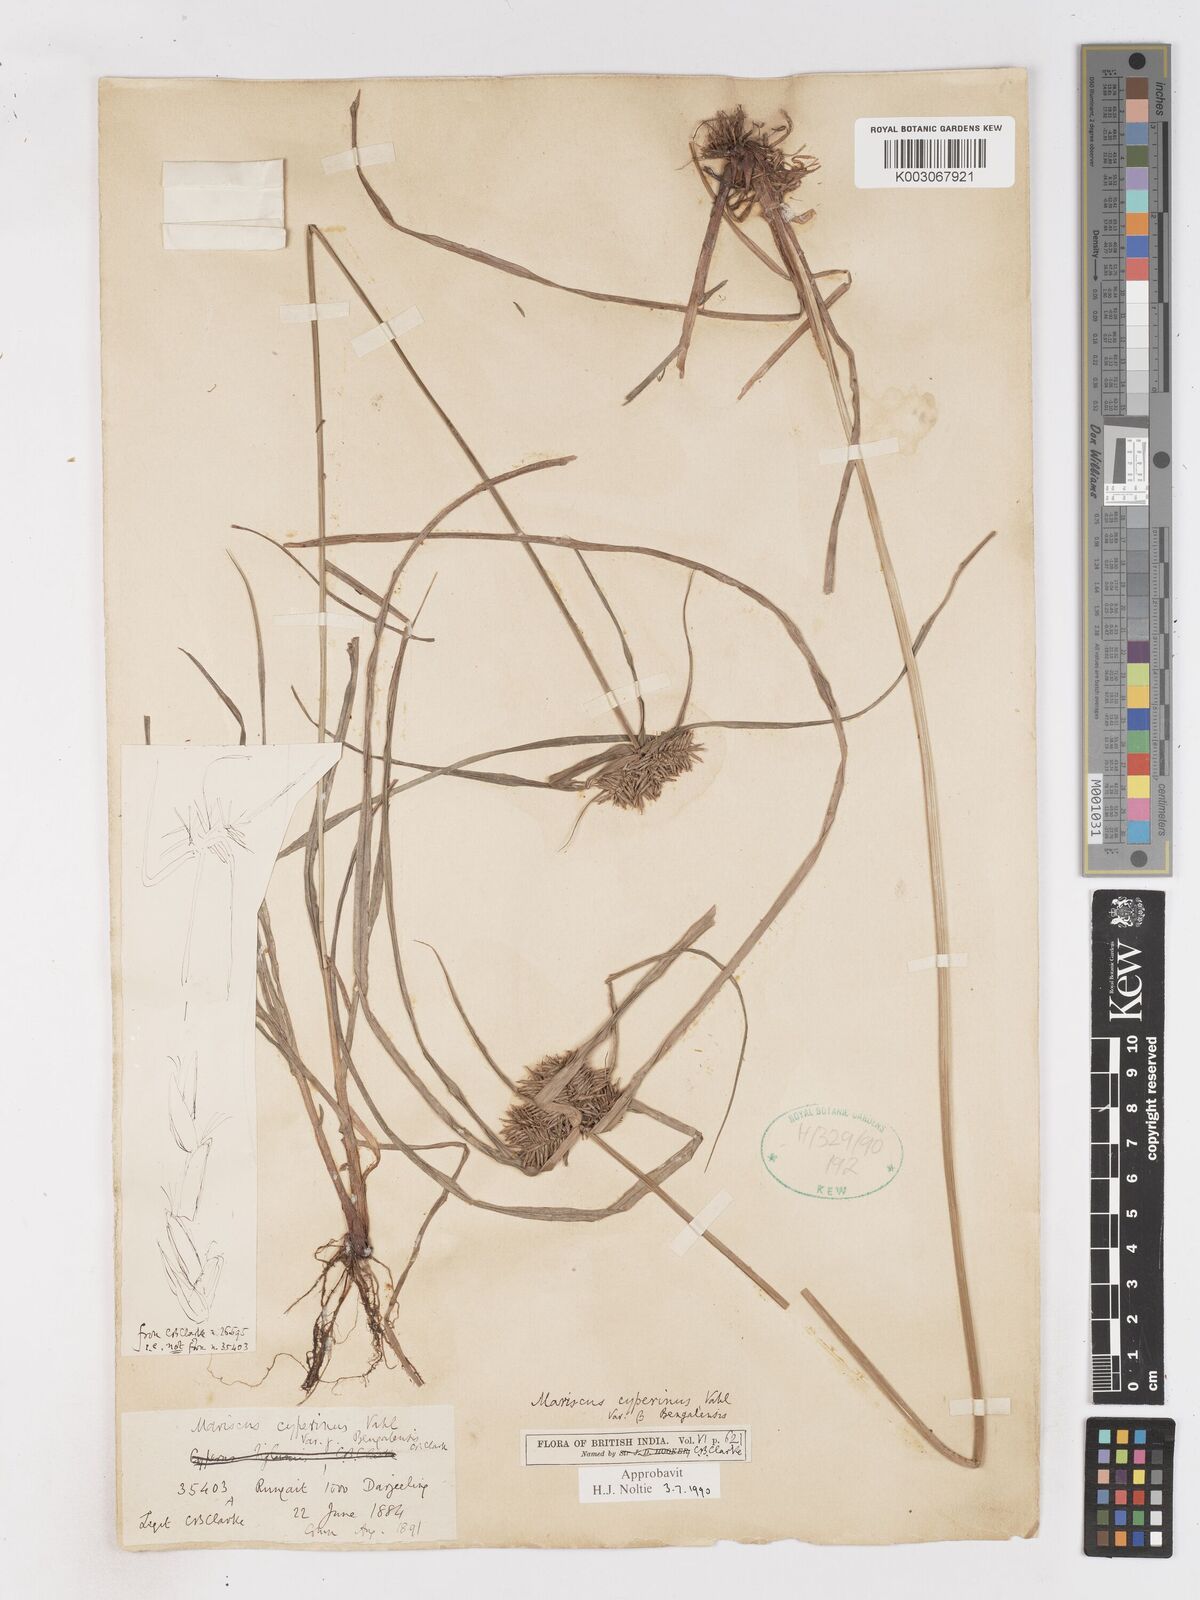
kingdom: Plantae
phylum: Tracheophyta
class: Liliopsida
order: Poales
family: Cyperaceae
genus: Cyperus
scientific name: Cyperus cyperinus
